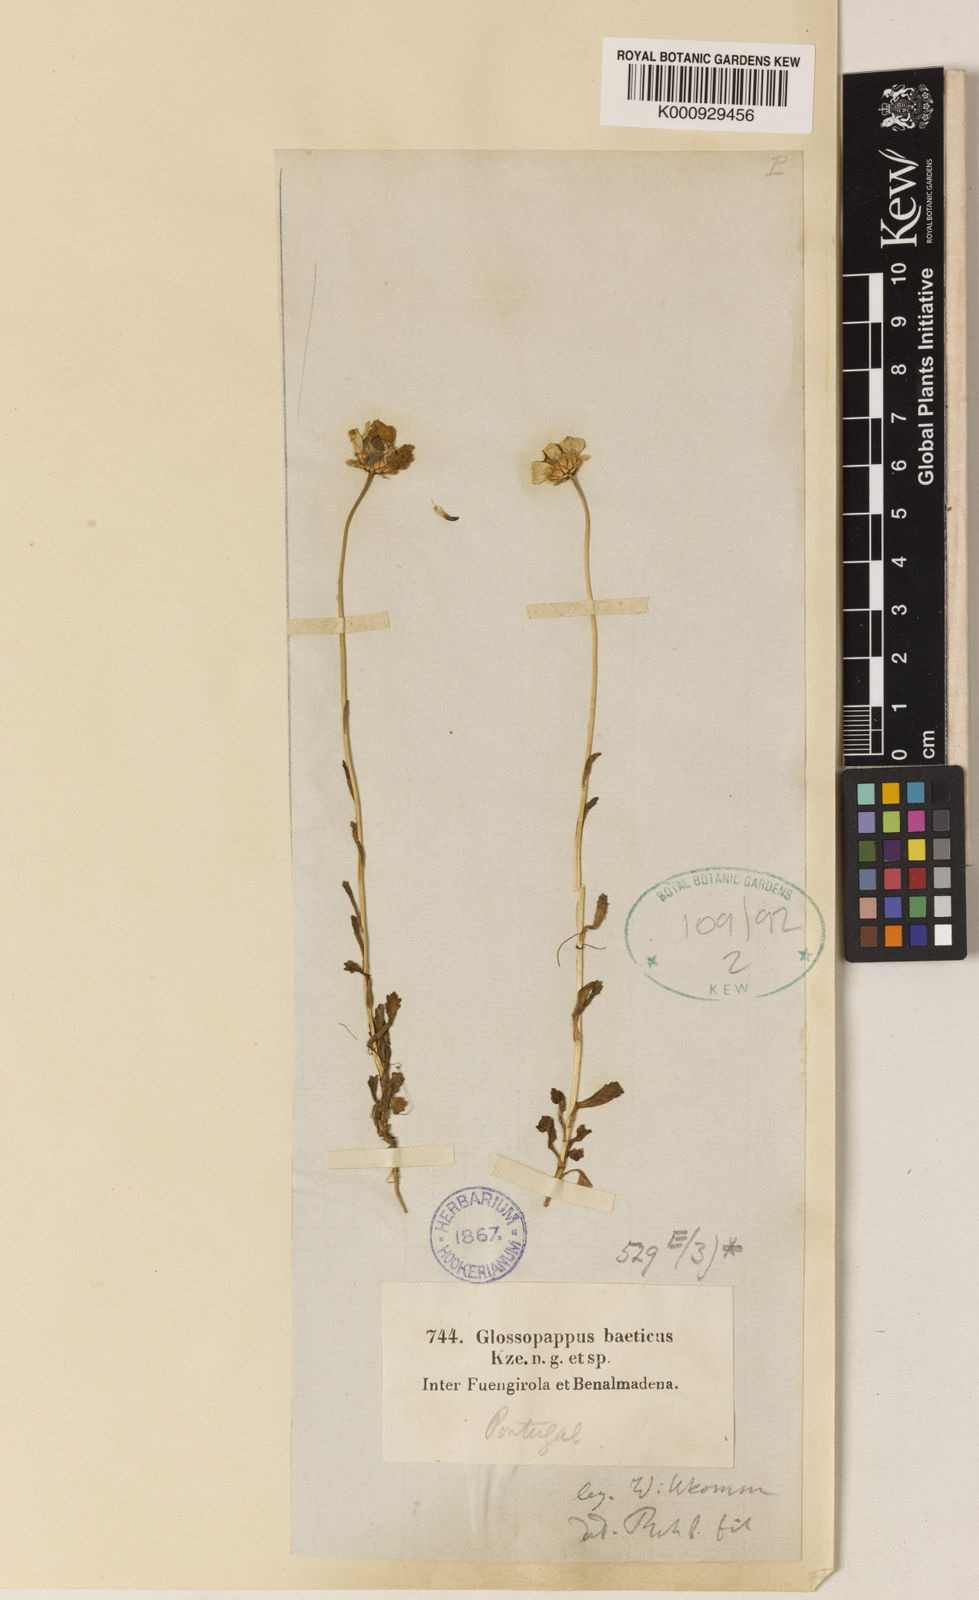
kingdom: Plantae
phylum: Tracheophyta
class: Magnoliopsida
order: Asterales
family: Asteraceae
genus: Glossopappus
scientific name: Glossopappus
